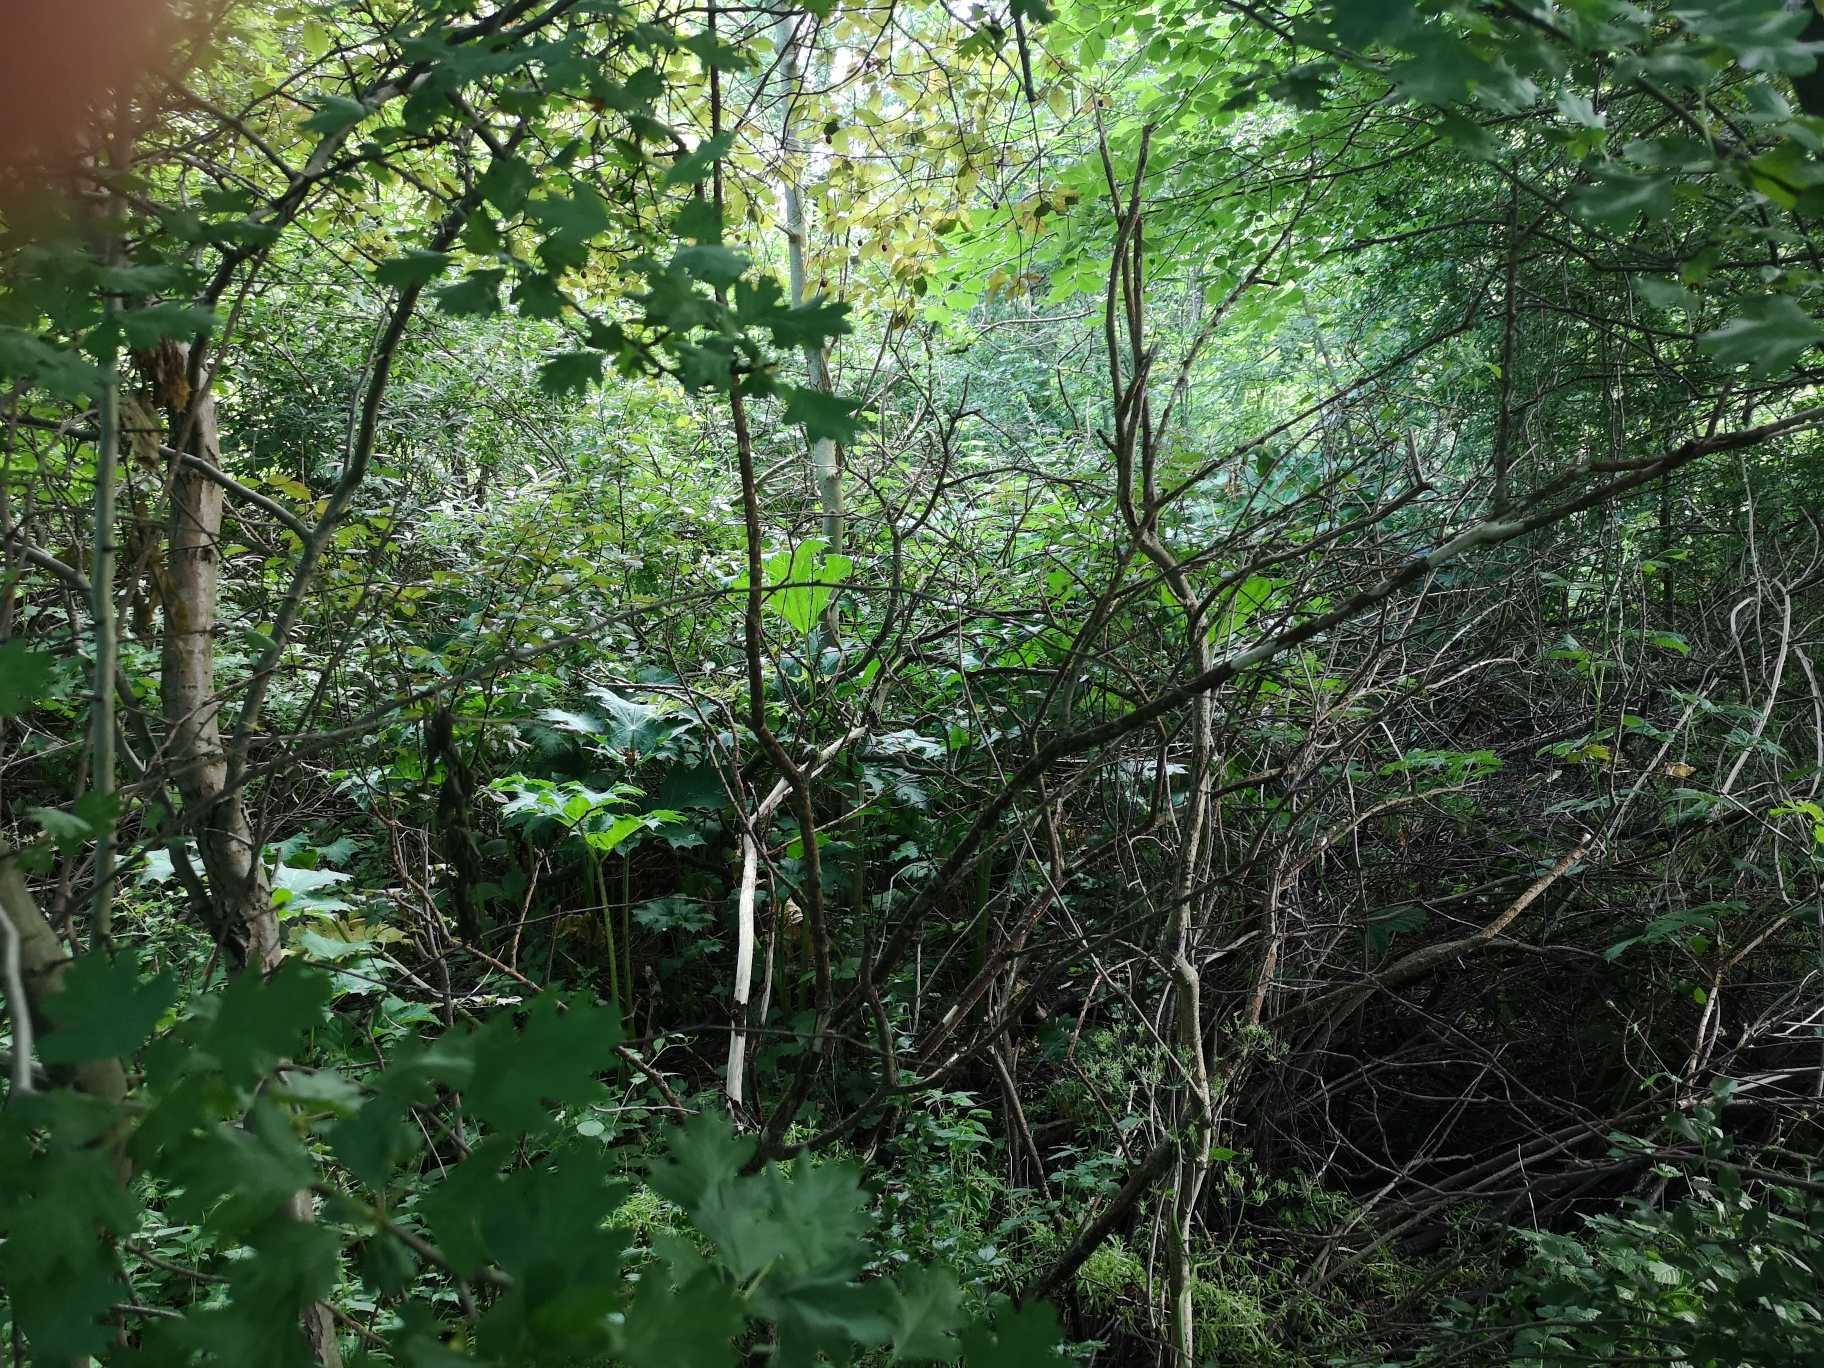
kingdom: Plantae
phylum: Tracheophyta
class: Magnoliopsida
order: Apiales
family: Apiaceae
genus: Heracleum
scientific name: Heracleum mantegazzianum
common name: Kæmpe-bjørneklo
